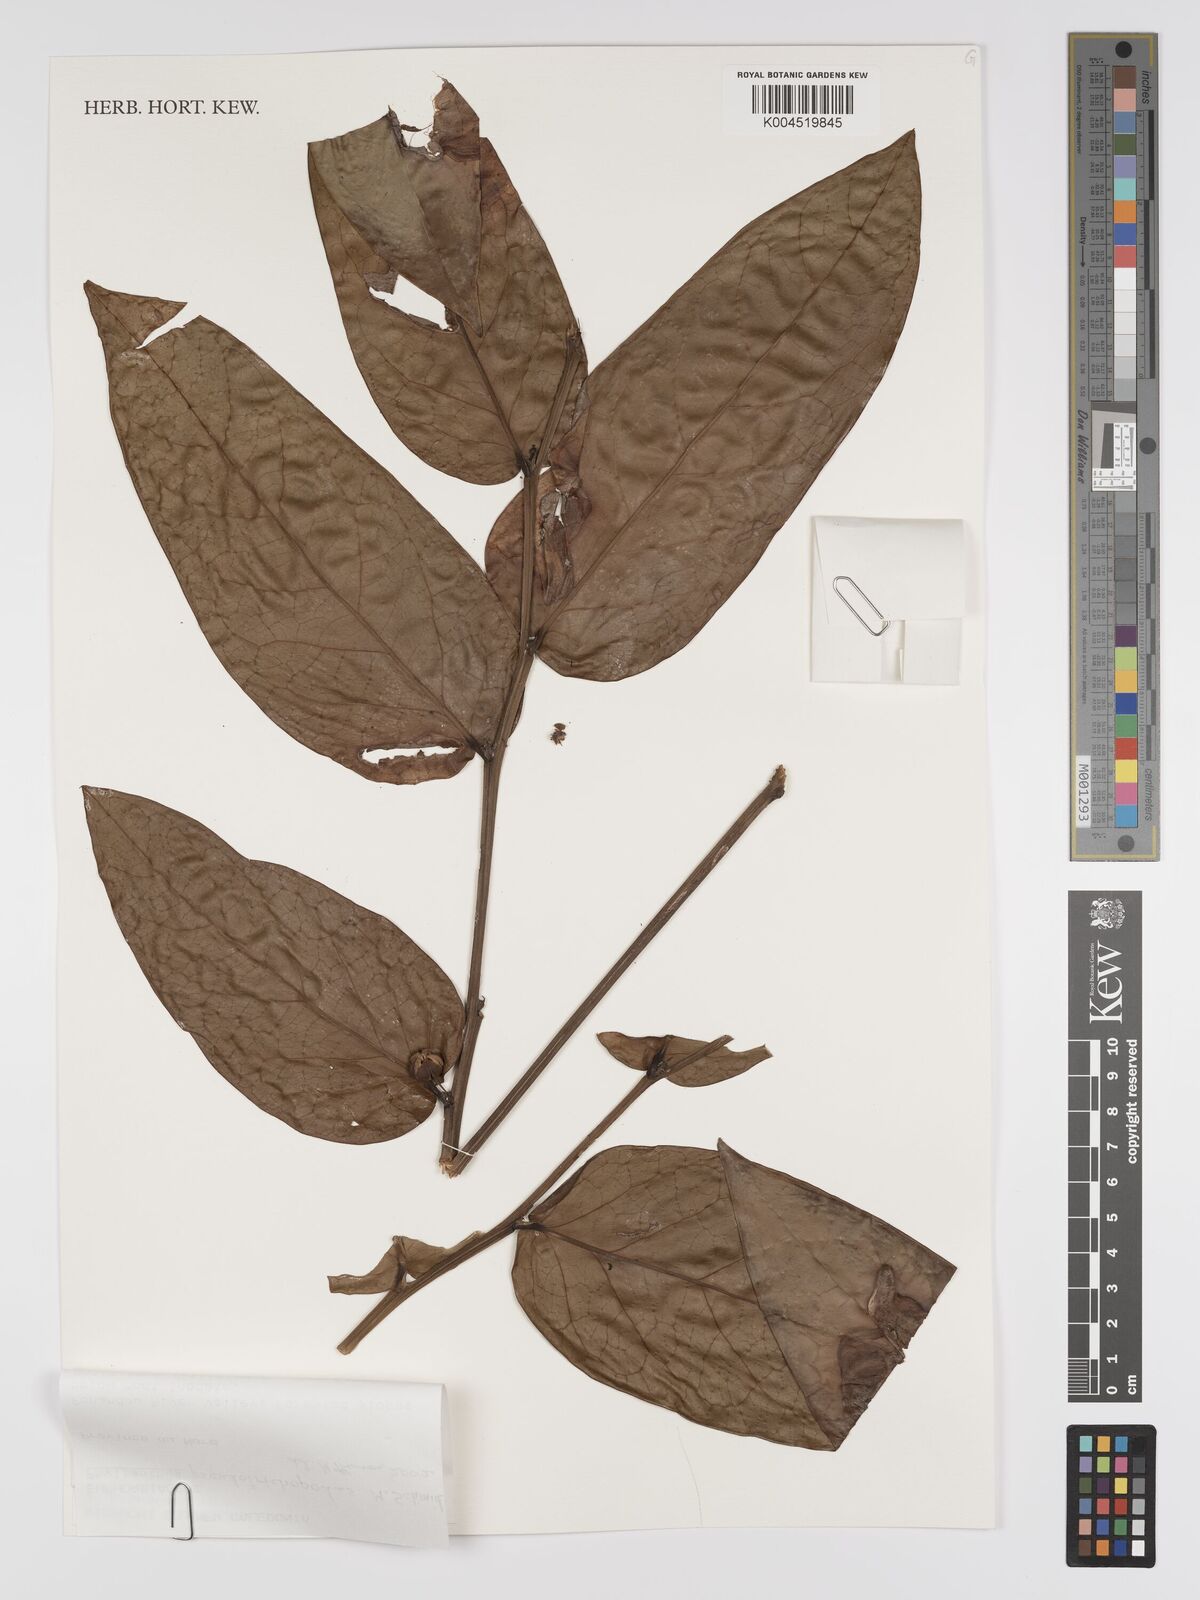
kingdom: Plantae
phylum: Tracheophyta
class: Magnoliopsida
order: Malpighiales
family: Phyllanthaceae
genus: Phyllanthus
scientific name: Phyllanthus pseudotrichopodus
